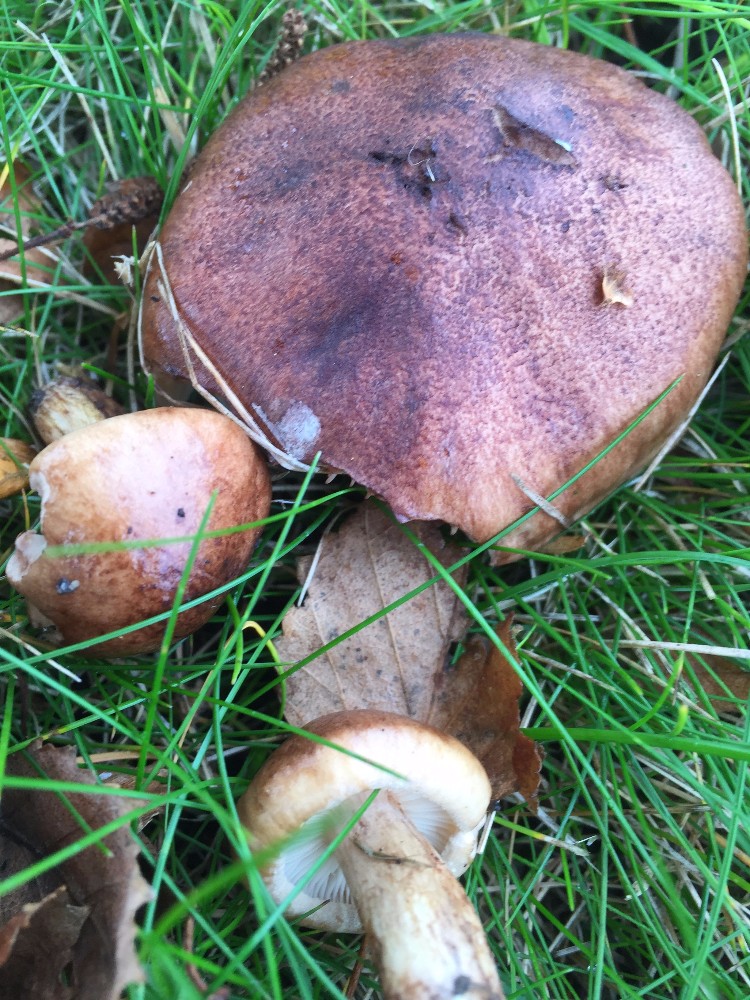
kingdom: Fungi
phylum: Basidiomycota
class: Agaricomycetes
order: Agaricales
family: Tricholomataceae
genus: Tricholoma
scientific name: Tricholoma fulvum
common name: birke-ridderhat
